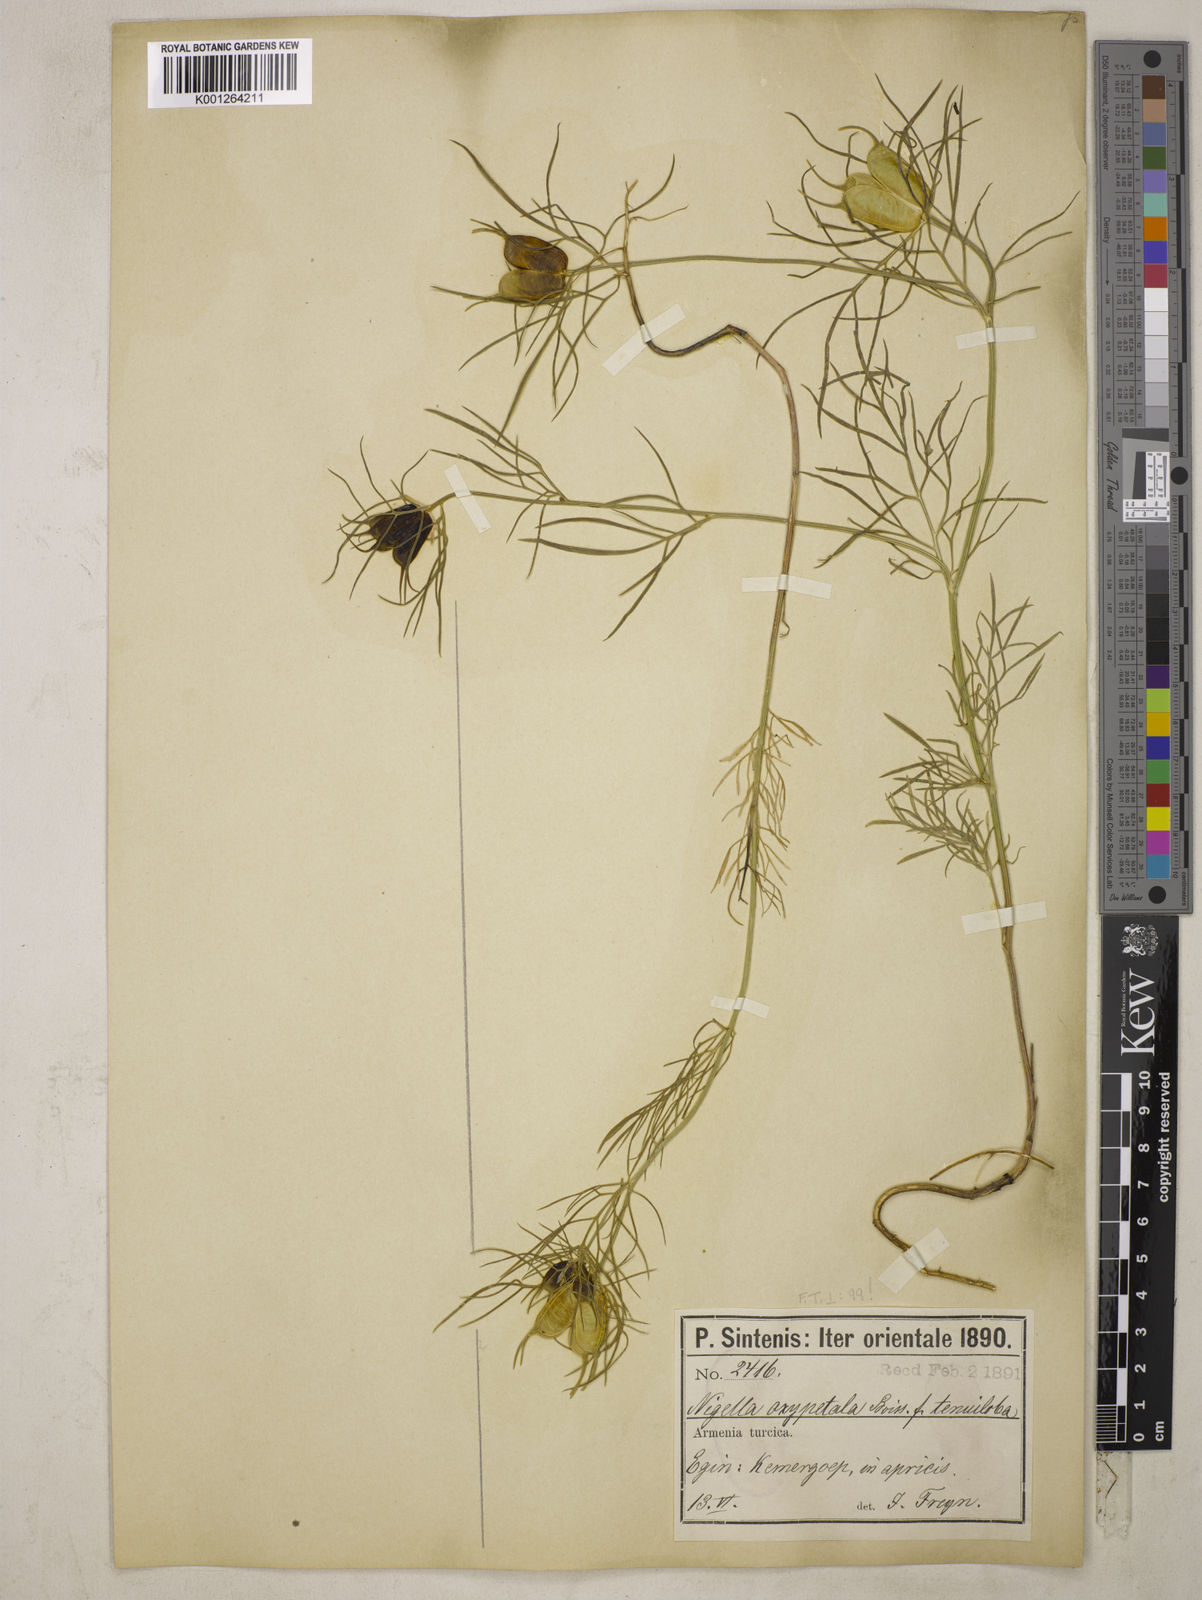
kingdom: Plantae
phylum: Tracheophyta
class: Magnoliopsida
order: Ranunculales
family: Ranunculaceae
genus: Nigella
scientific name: Nigella oxypetala
